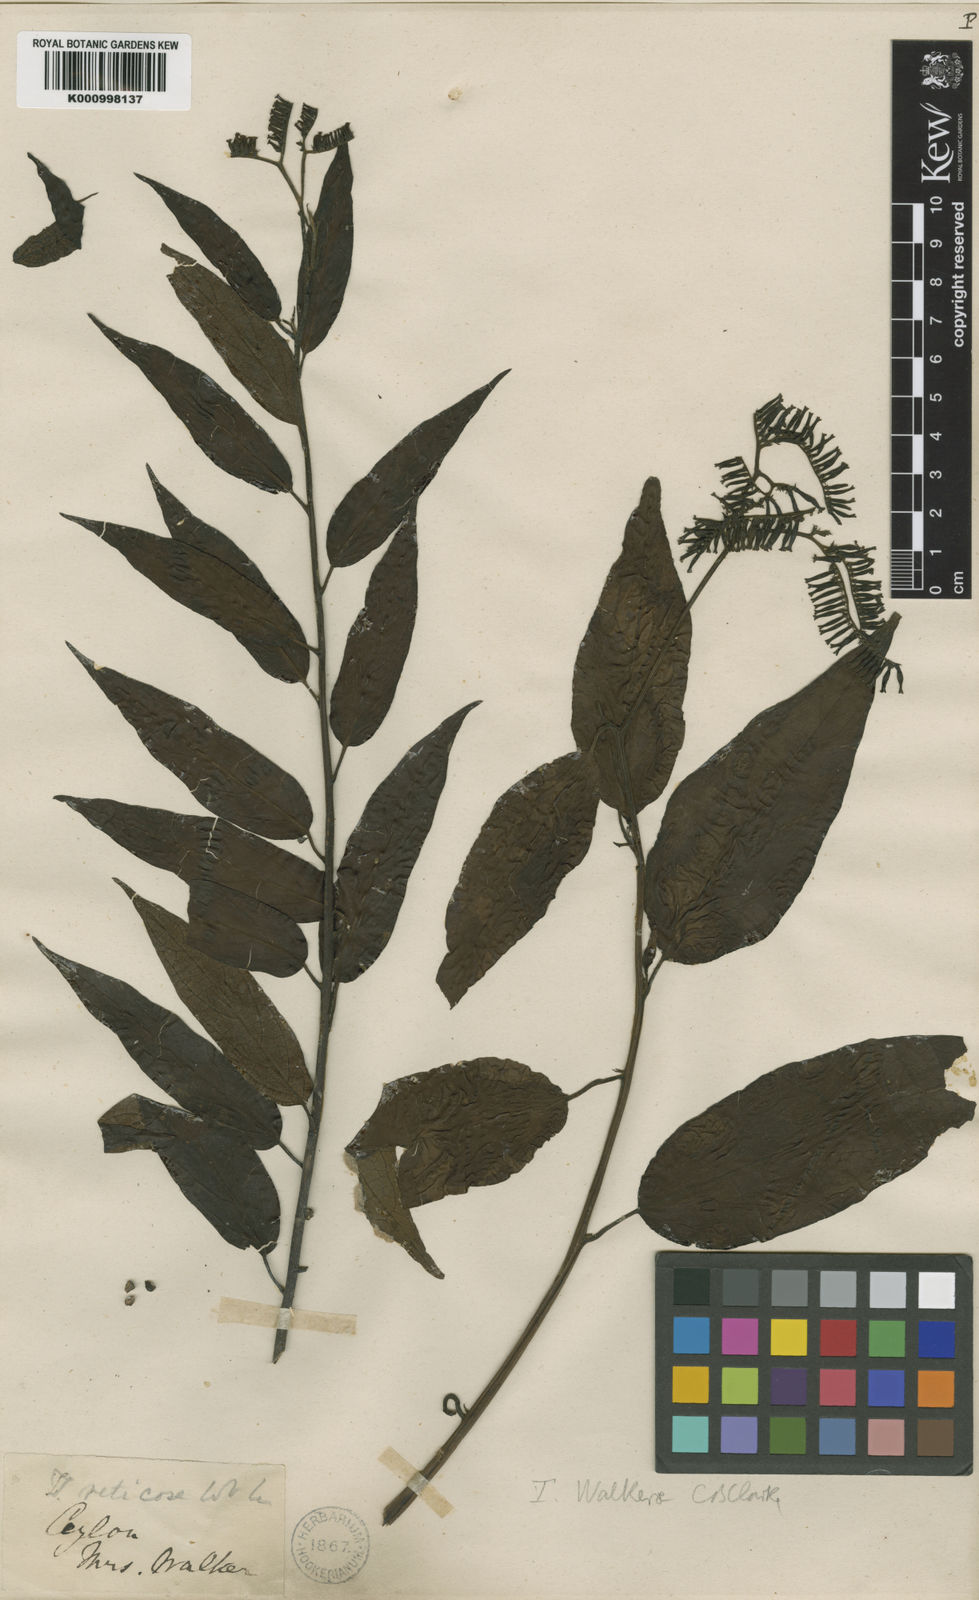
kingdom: Plantae
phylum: Tracheophyta
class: Magnoliopsida
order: Boraginales
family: Heliotropiaceae
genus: Tournefortia
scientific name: Tournefortia walkerae
